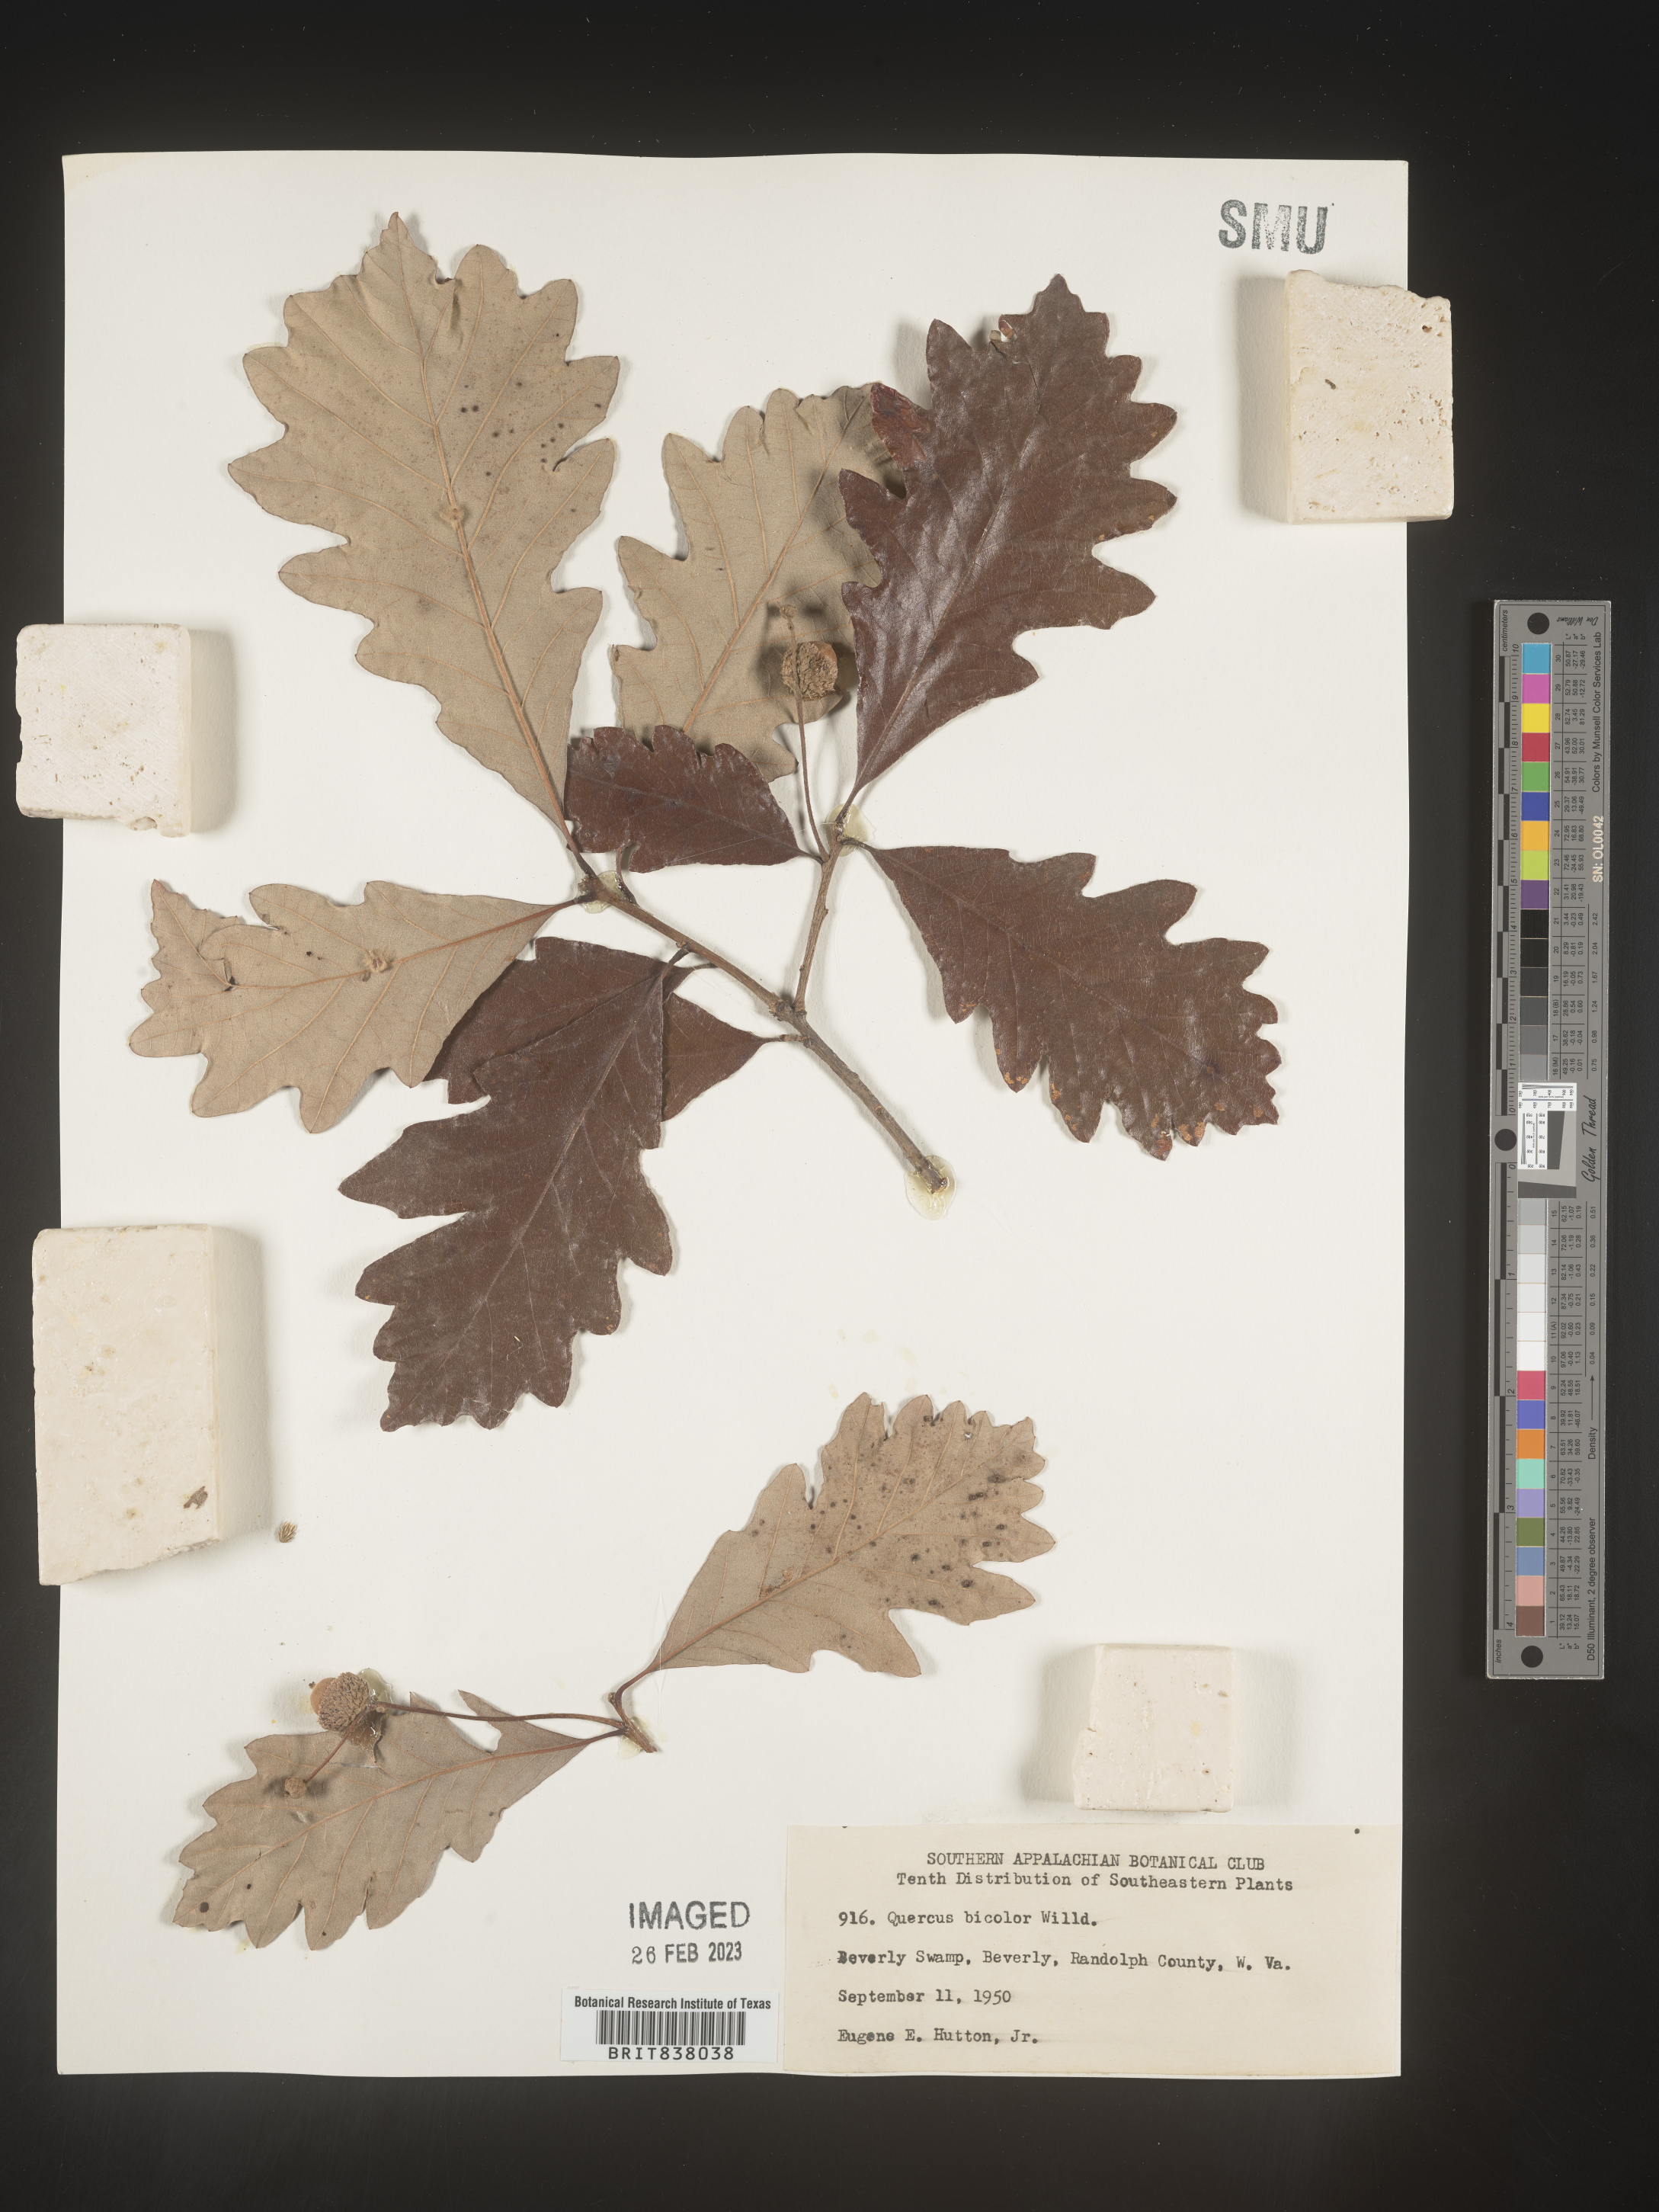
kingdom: Plantae
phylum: Tracheophyta
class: Magnoliopsida
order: Fagales
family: Fagaceae
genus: Quercus
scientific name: Quercus bicolor
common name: Swamp white oak
